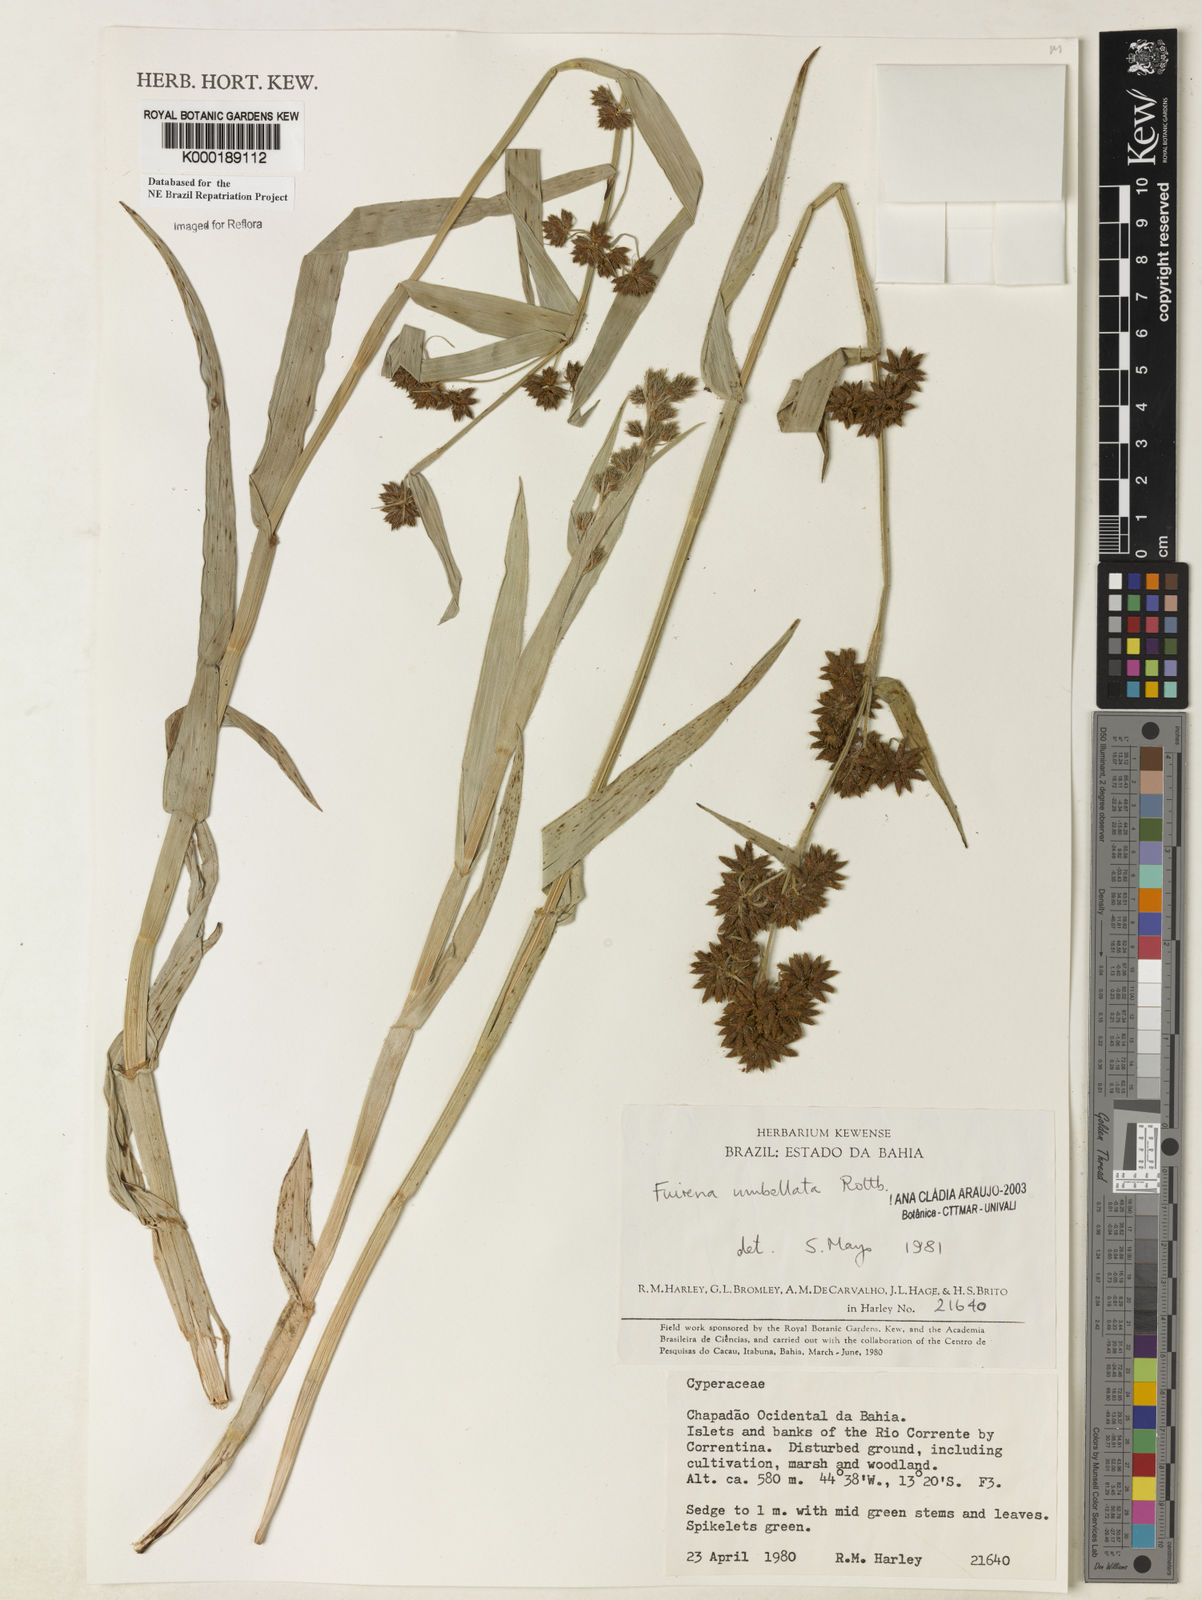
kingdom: Plantae
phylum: Tracheophyta
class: Liliopsida
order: Poales
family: Cyperaceae
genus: Fuirena
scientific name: Fuirena umbellata
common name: Yefen
